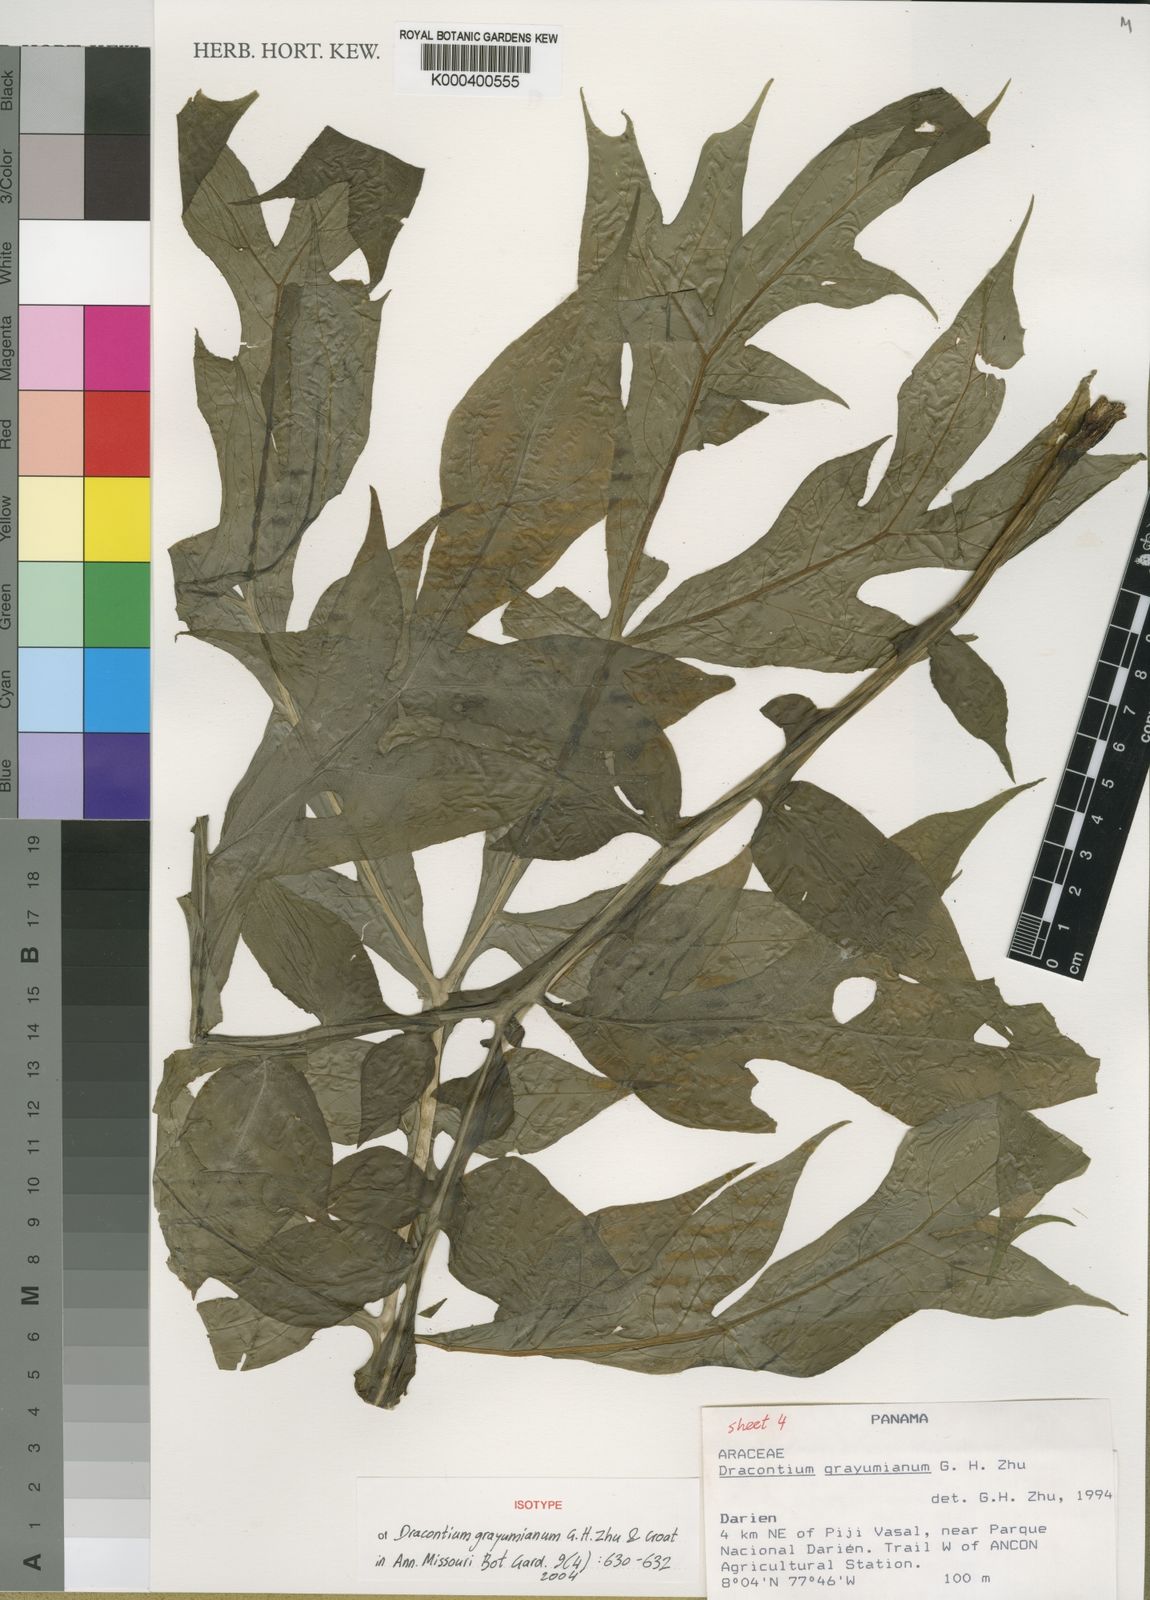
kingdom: Plantae
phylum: Tracheophyta
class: Liliopsida
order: Alismatales
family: Araceae
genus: Dracontium
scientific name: Dracontium grayumianum
